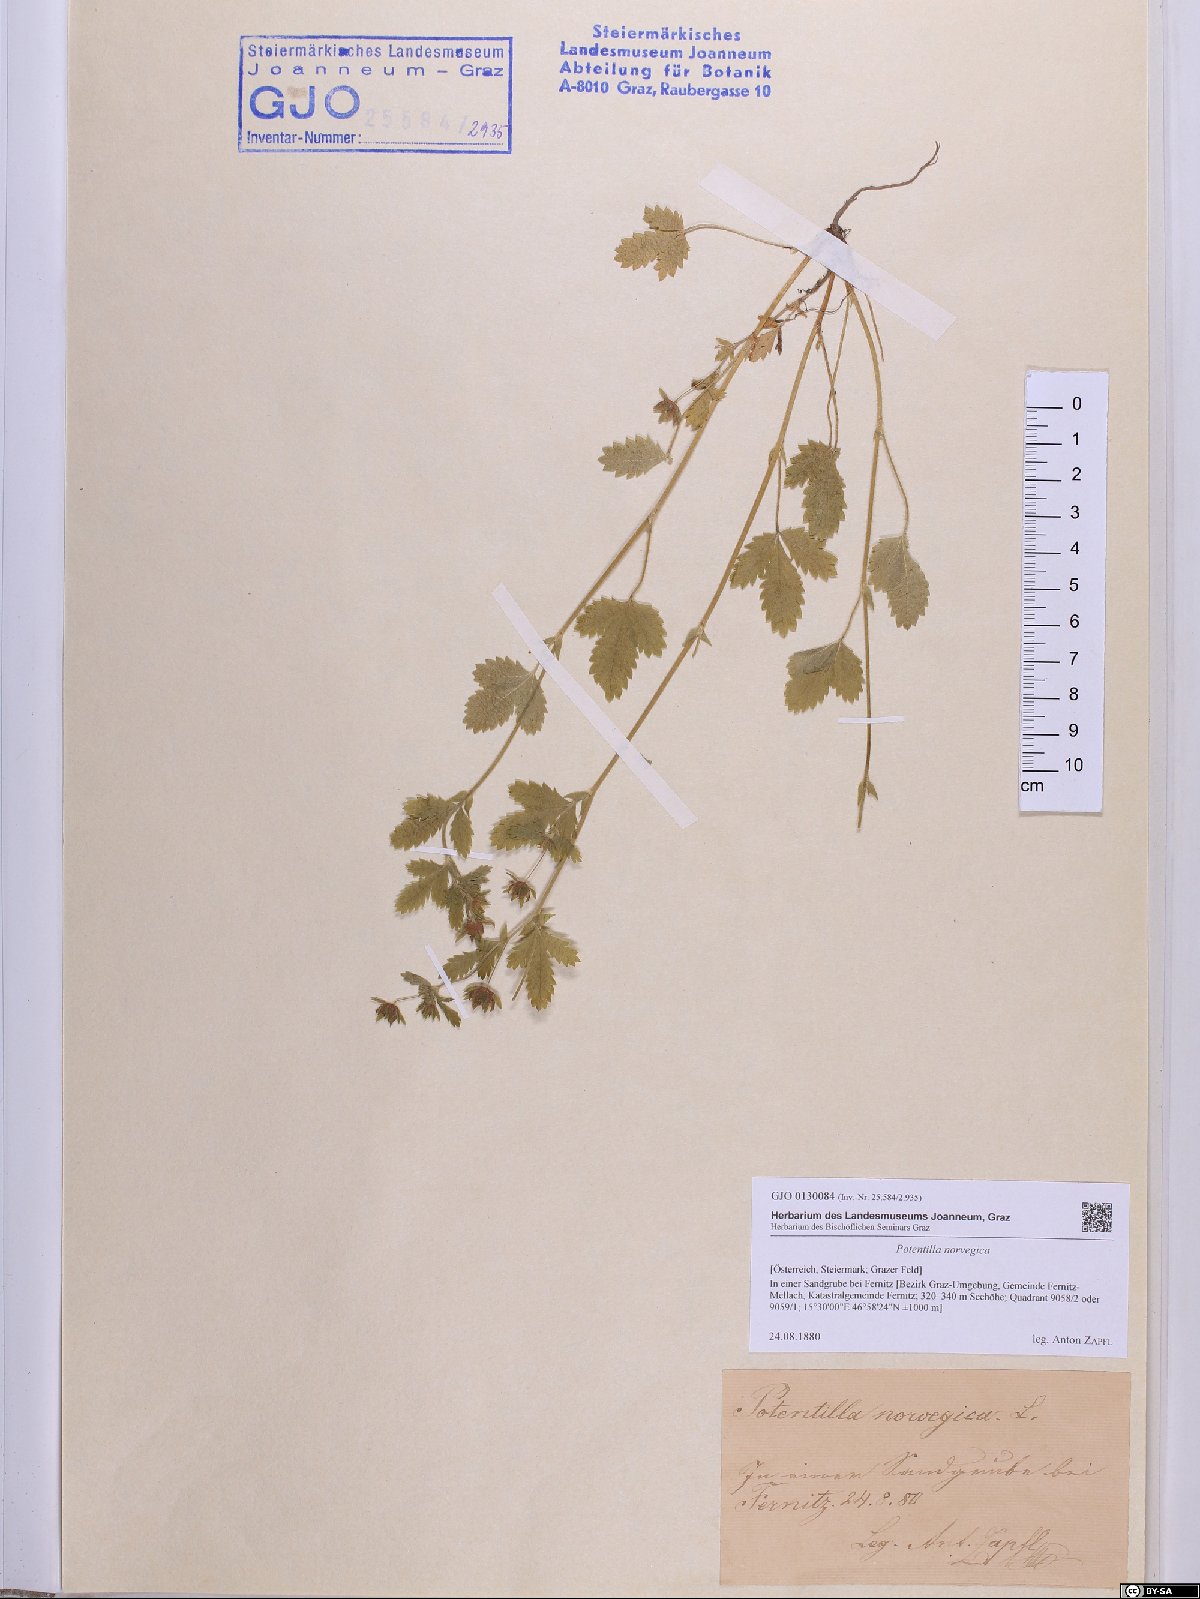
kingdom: Plantae
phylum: Tracheophyta
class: Magnoliopsida
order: Rosales
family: Rosaceae
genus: Potentilla
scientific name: Potentilla norvegica
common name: Ternate-leaved cinquefoil
